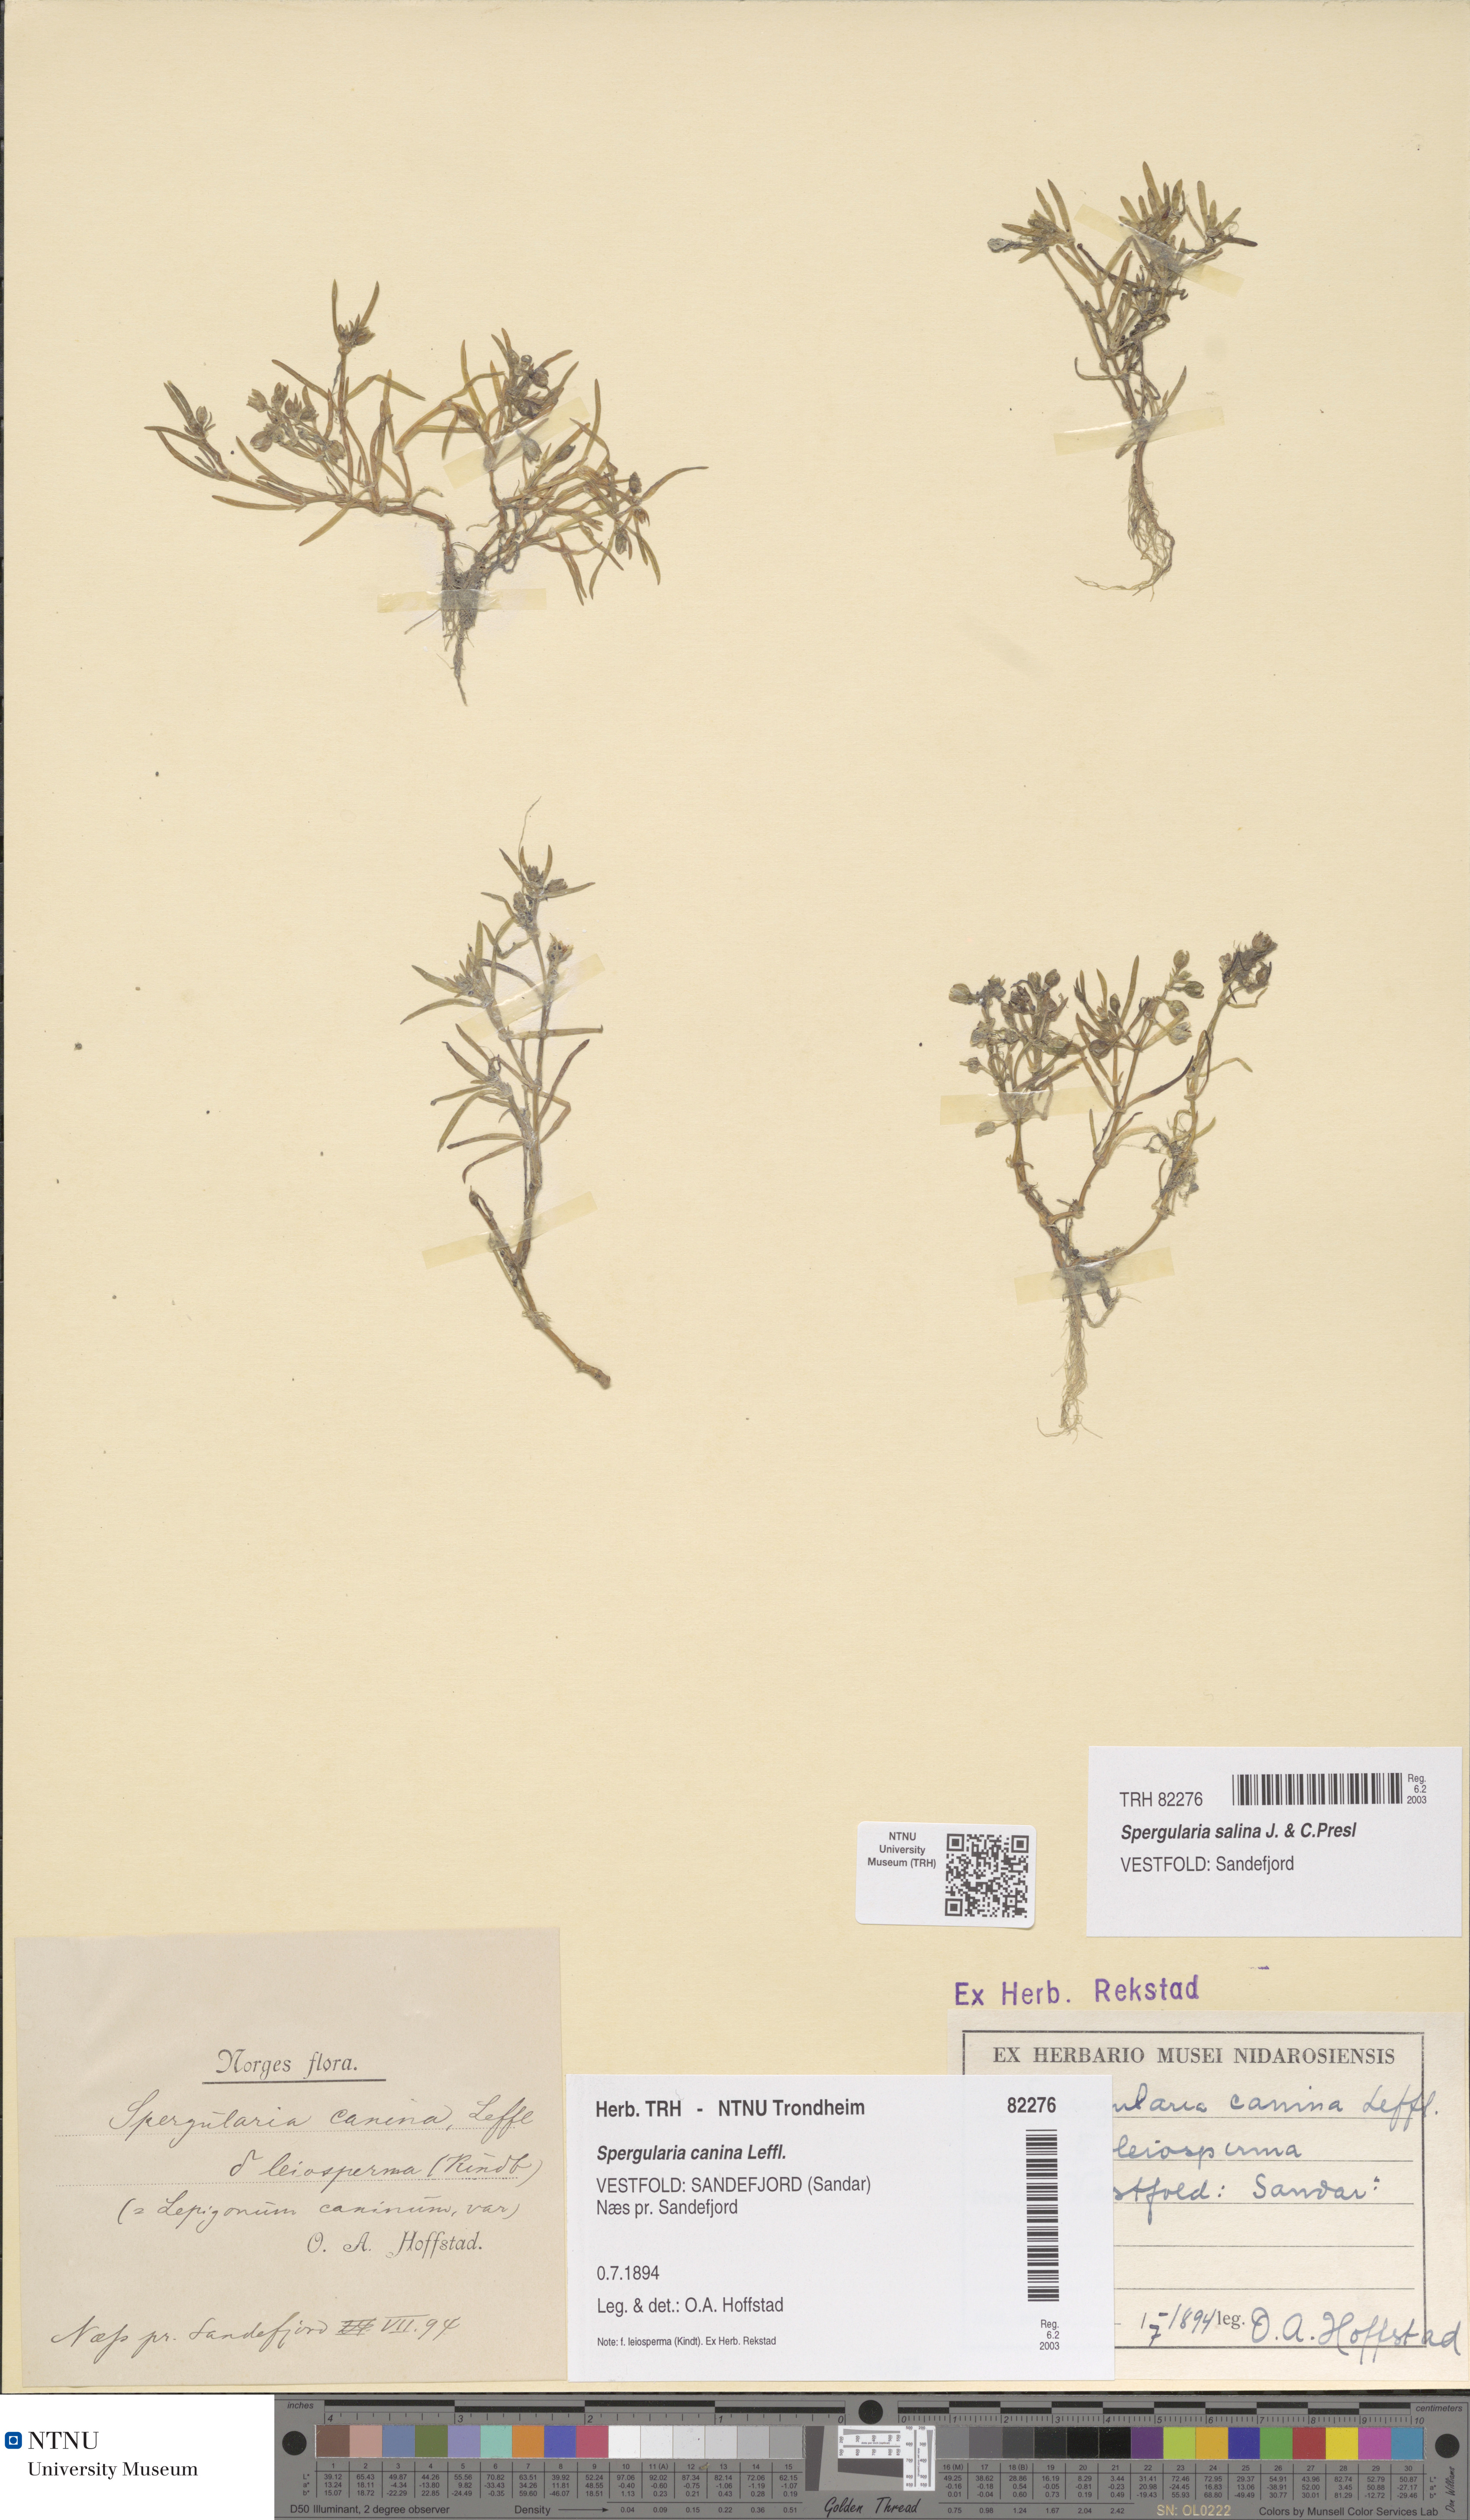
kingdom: Plantae
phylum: Tracheophyta
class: Magnoliopsida
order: Caryophyllales
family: Caryophyllaceae
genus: Spergularia
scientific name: Spergularia marina
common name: Lesser sea-spurrey
